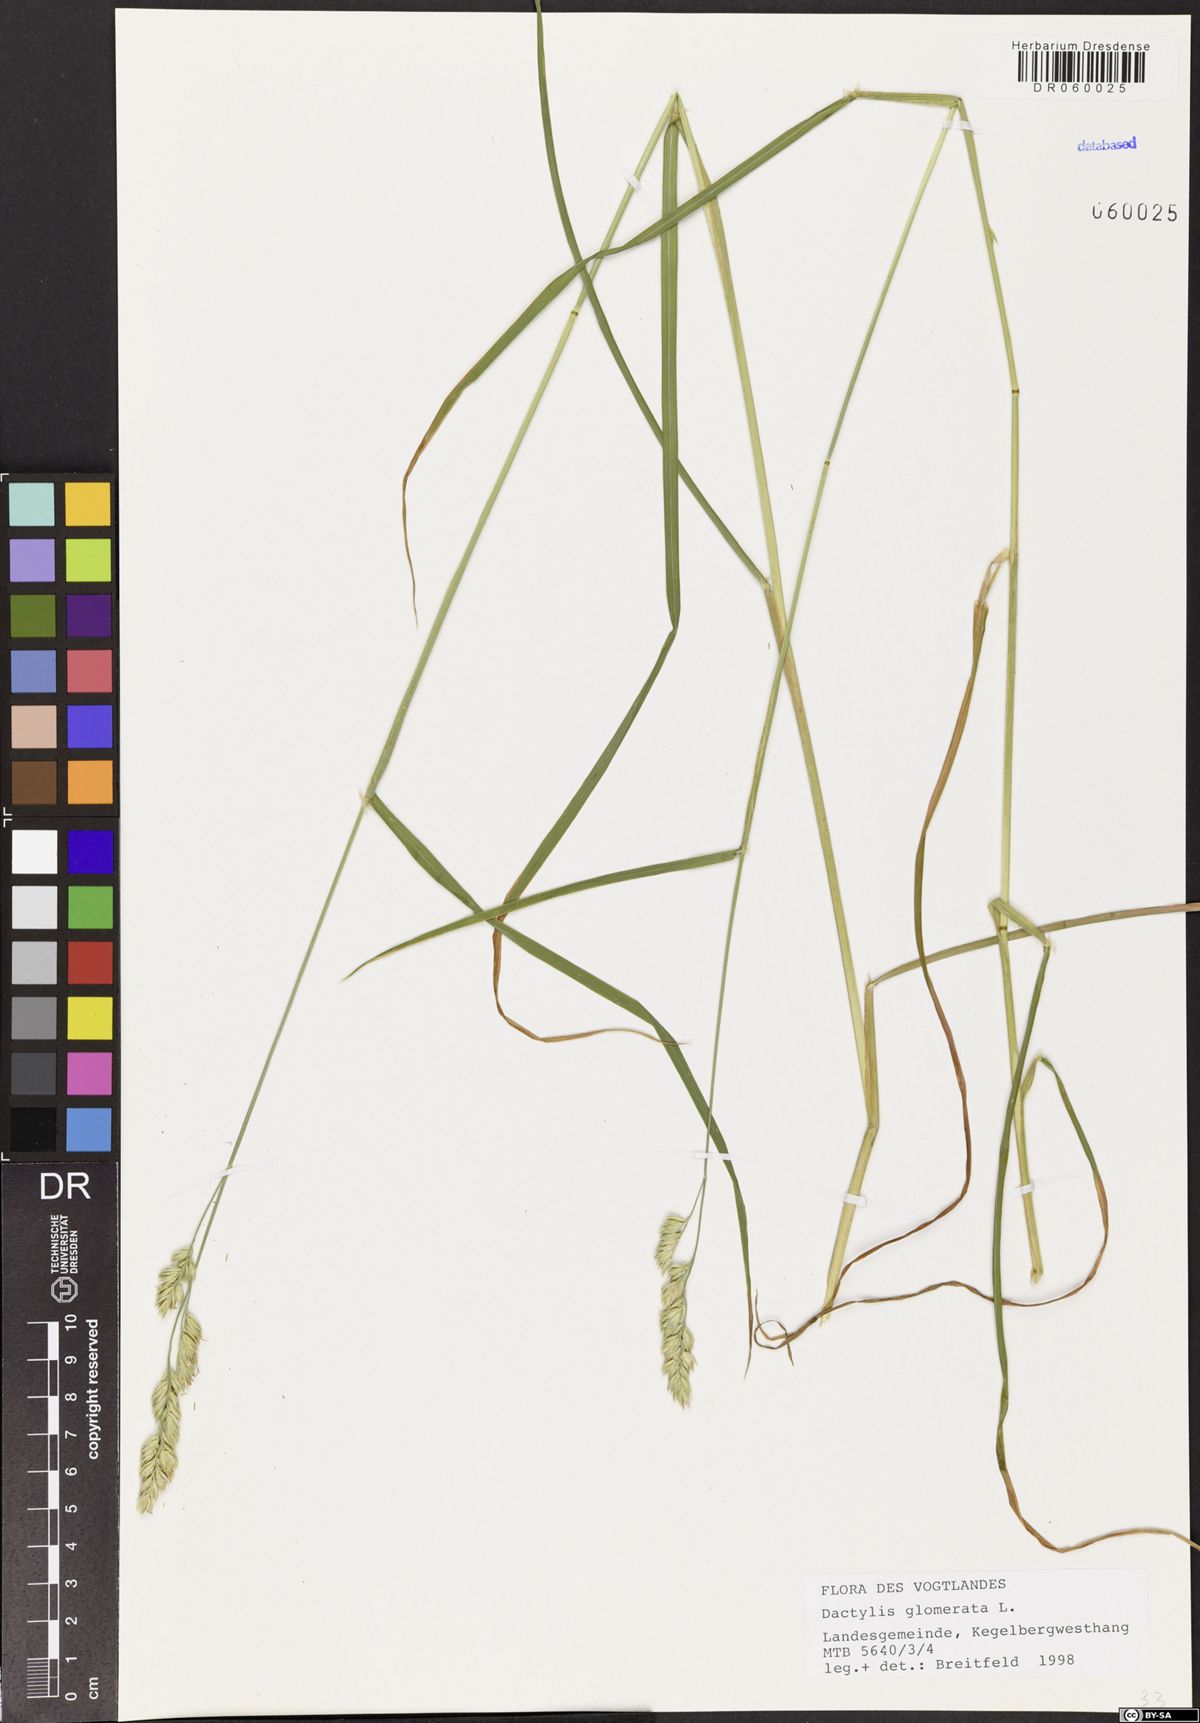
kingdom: Plantae
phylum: Tracheophyta
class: Liliopsida
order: Poales
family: Poaceae
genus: Dactylis
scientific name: Dactylis glomerata
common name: Orchardgrass
